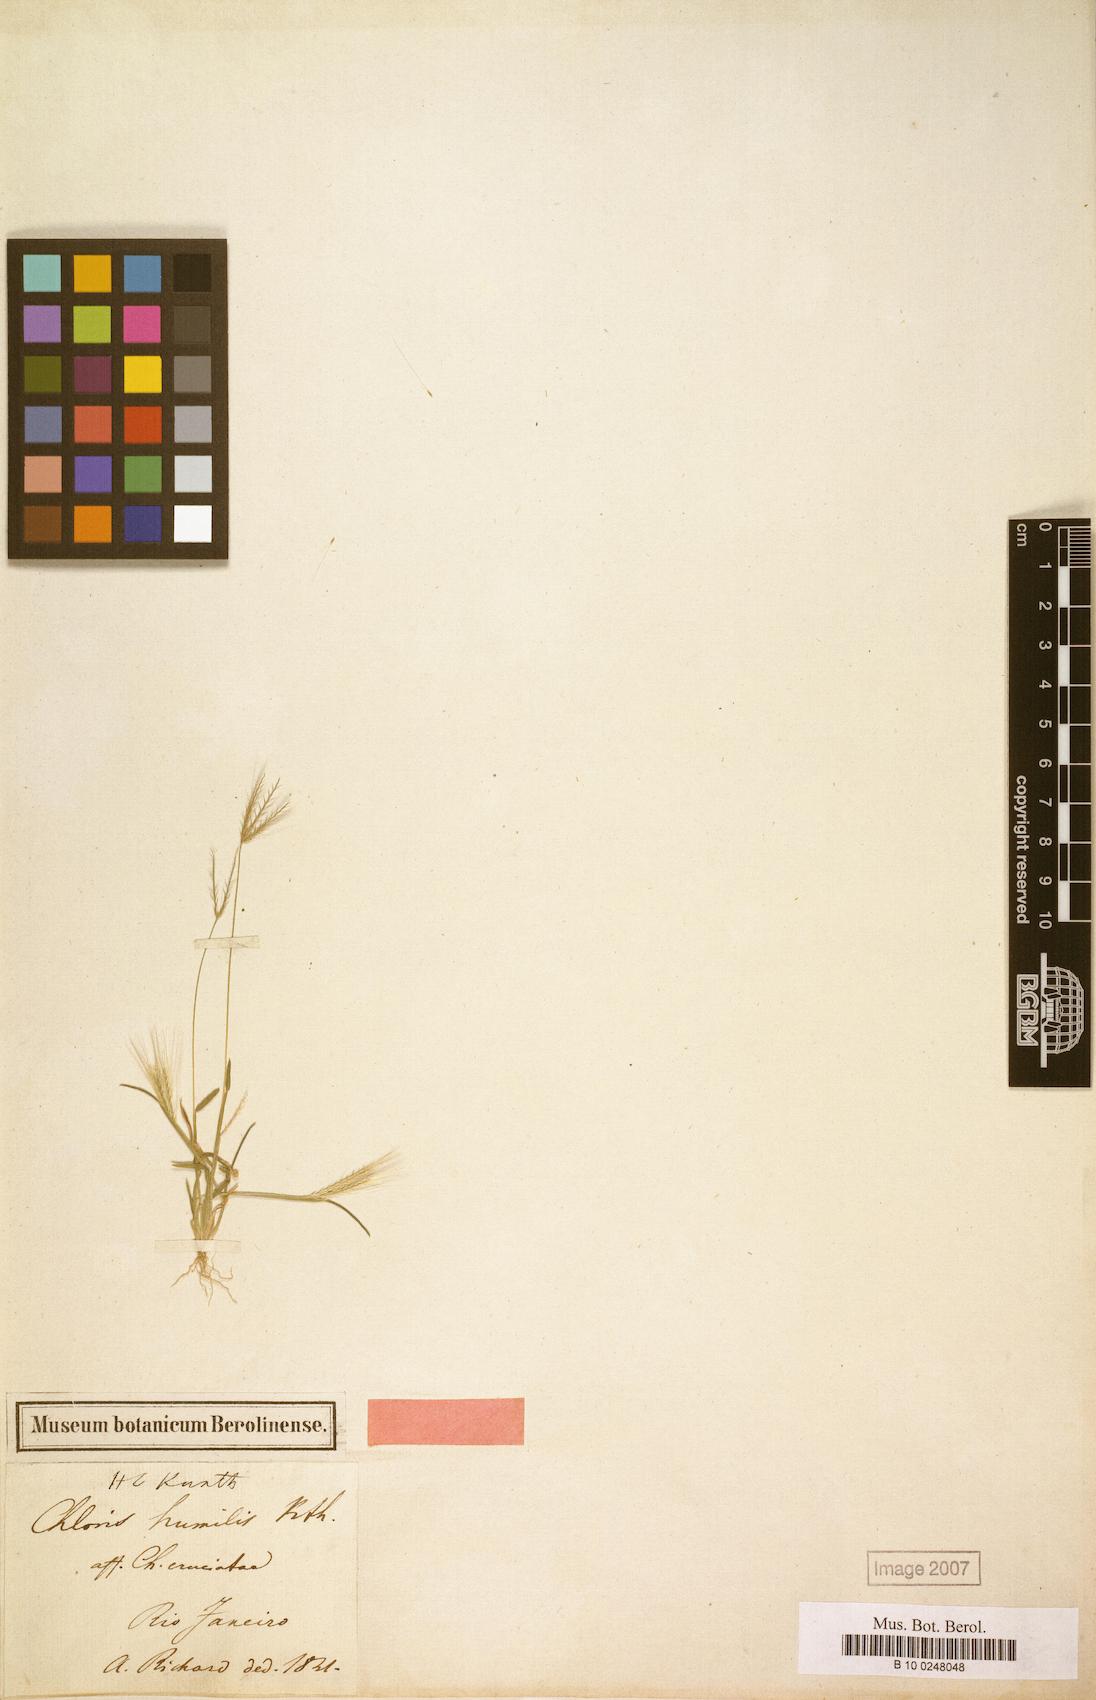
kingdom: Plantae
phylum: Tracheophyta
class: Liliopsida
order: Poales
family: Poaceae
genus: Chloris
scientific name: Chloris pycnothrix
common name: Spiderweb chloris
